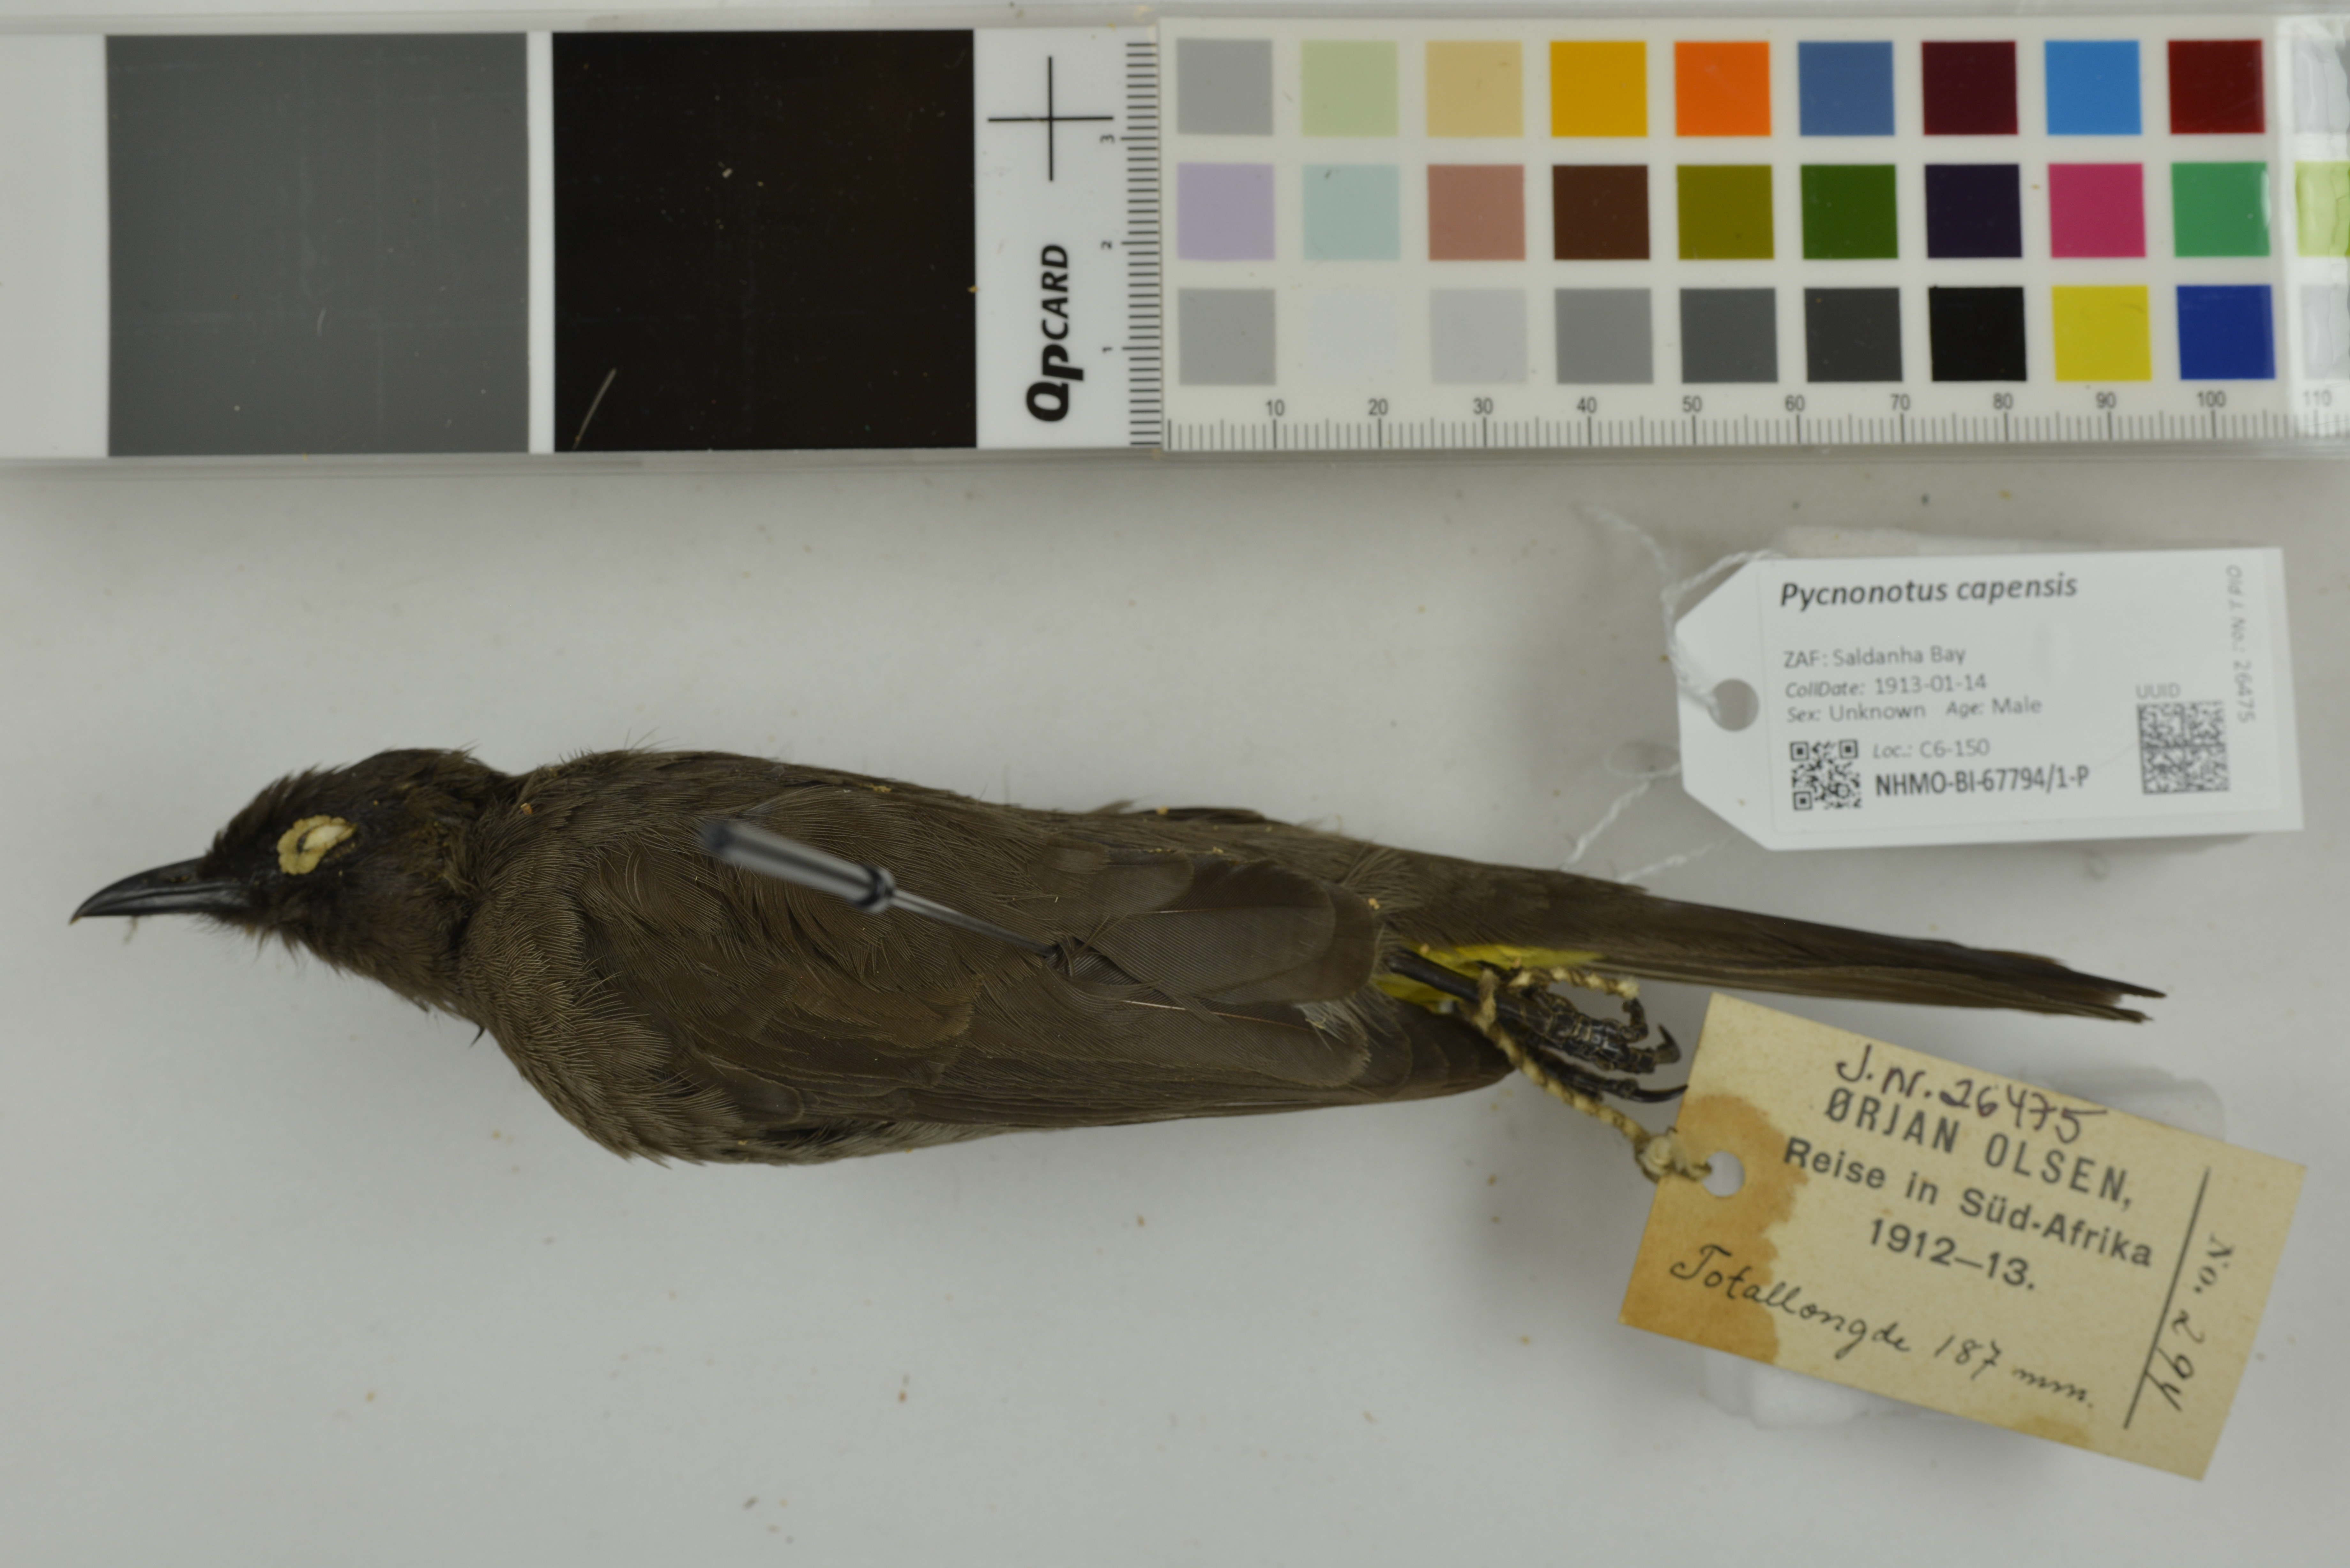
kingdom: Animalia
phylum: Chordata
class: Aves
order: Passeriformes
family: Pycnonotidae
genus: Pycnonotus
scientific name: Pycnonotus capensis
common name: Cape bulbul
